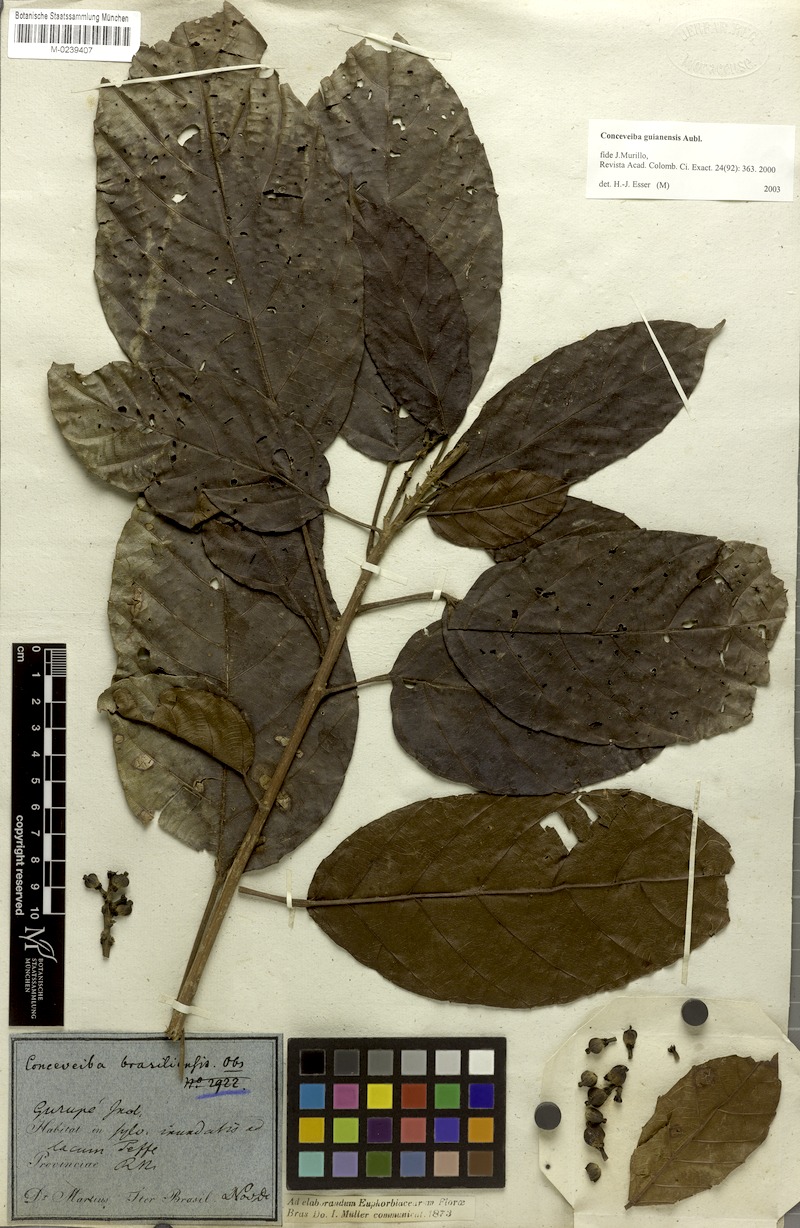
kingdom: Plantae
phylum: Tracheophyta
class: Magnoliopsida
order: Malpighiales
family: Euphorbiaceae
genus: Conceveiba
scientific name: Conceveiba guianensis
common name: Poatoru
